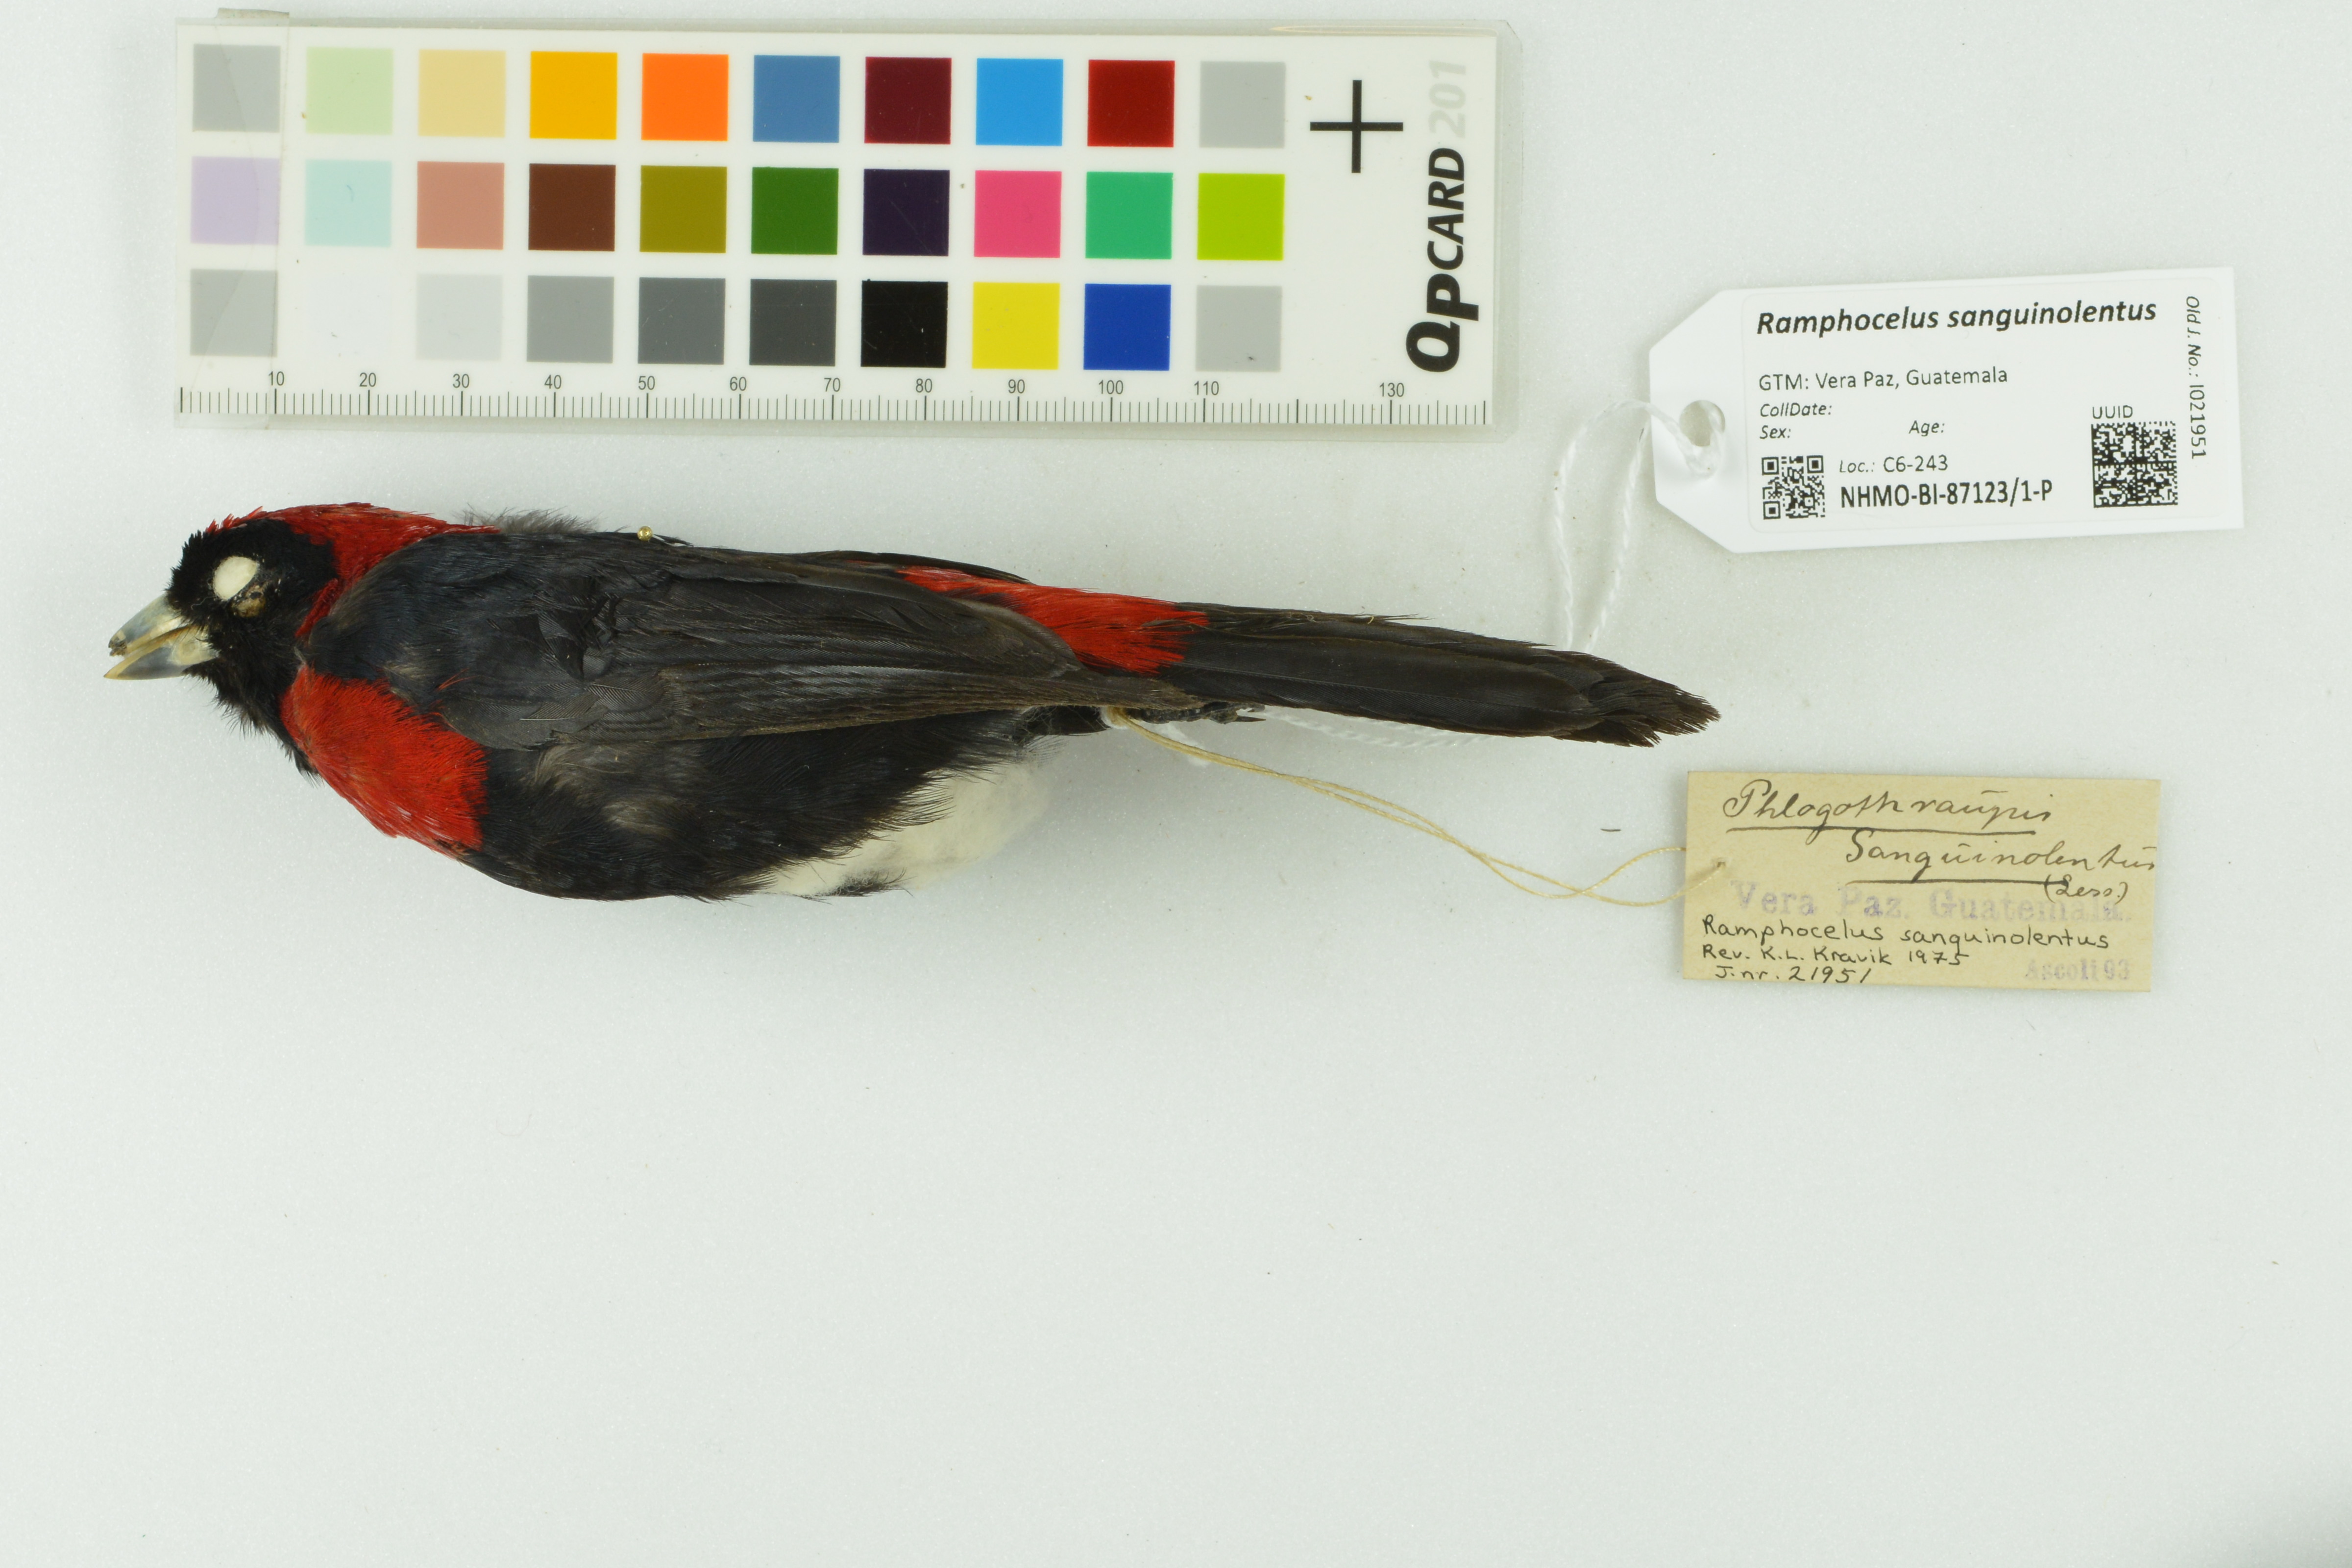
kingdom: Animalia
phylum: Chordata
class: Aves
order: Passeriformes
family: Thraupidae
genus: Ramphocelus
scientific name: Ramphocelus sanguinolentus
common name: Crimson-collared tanager
